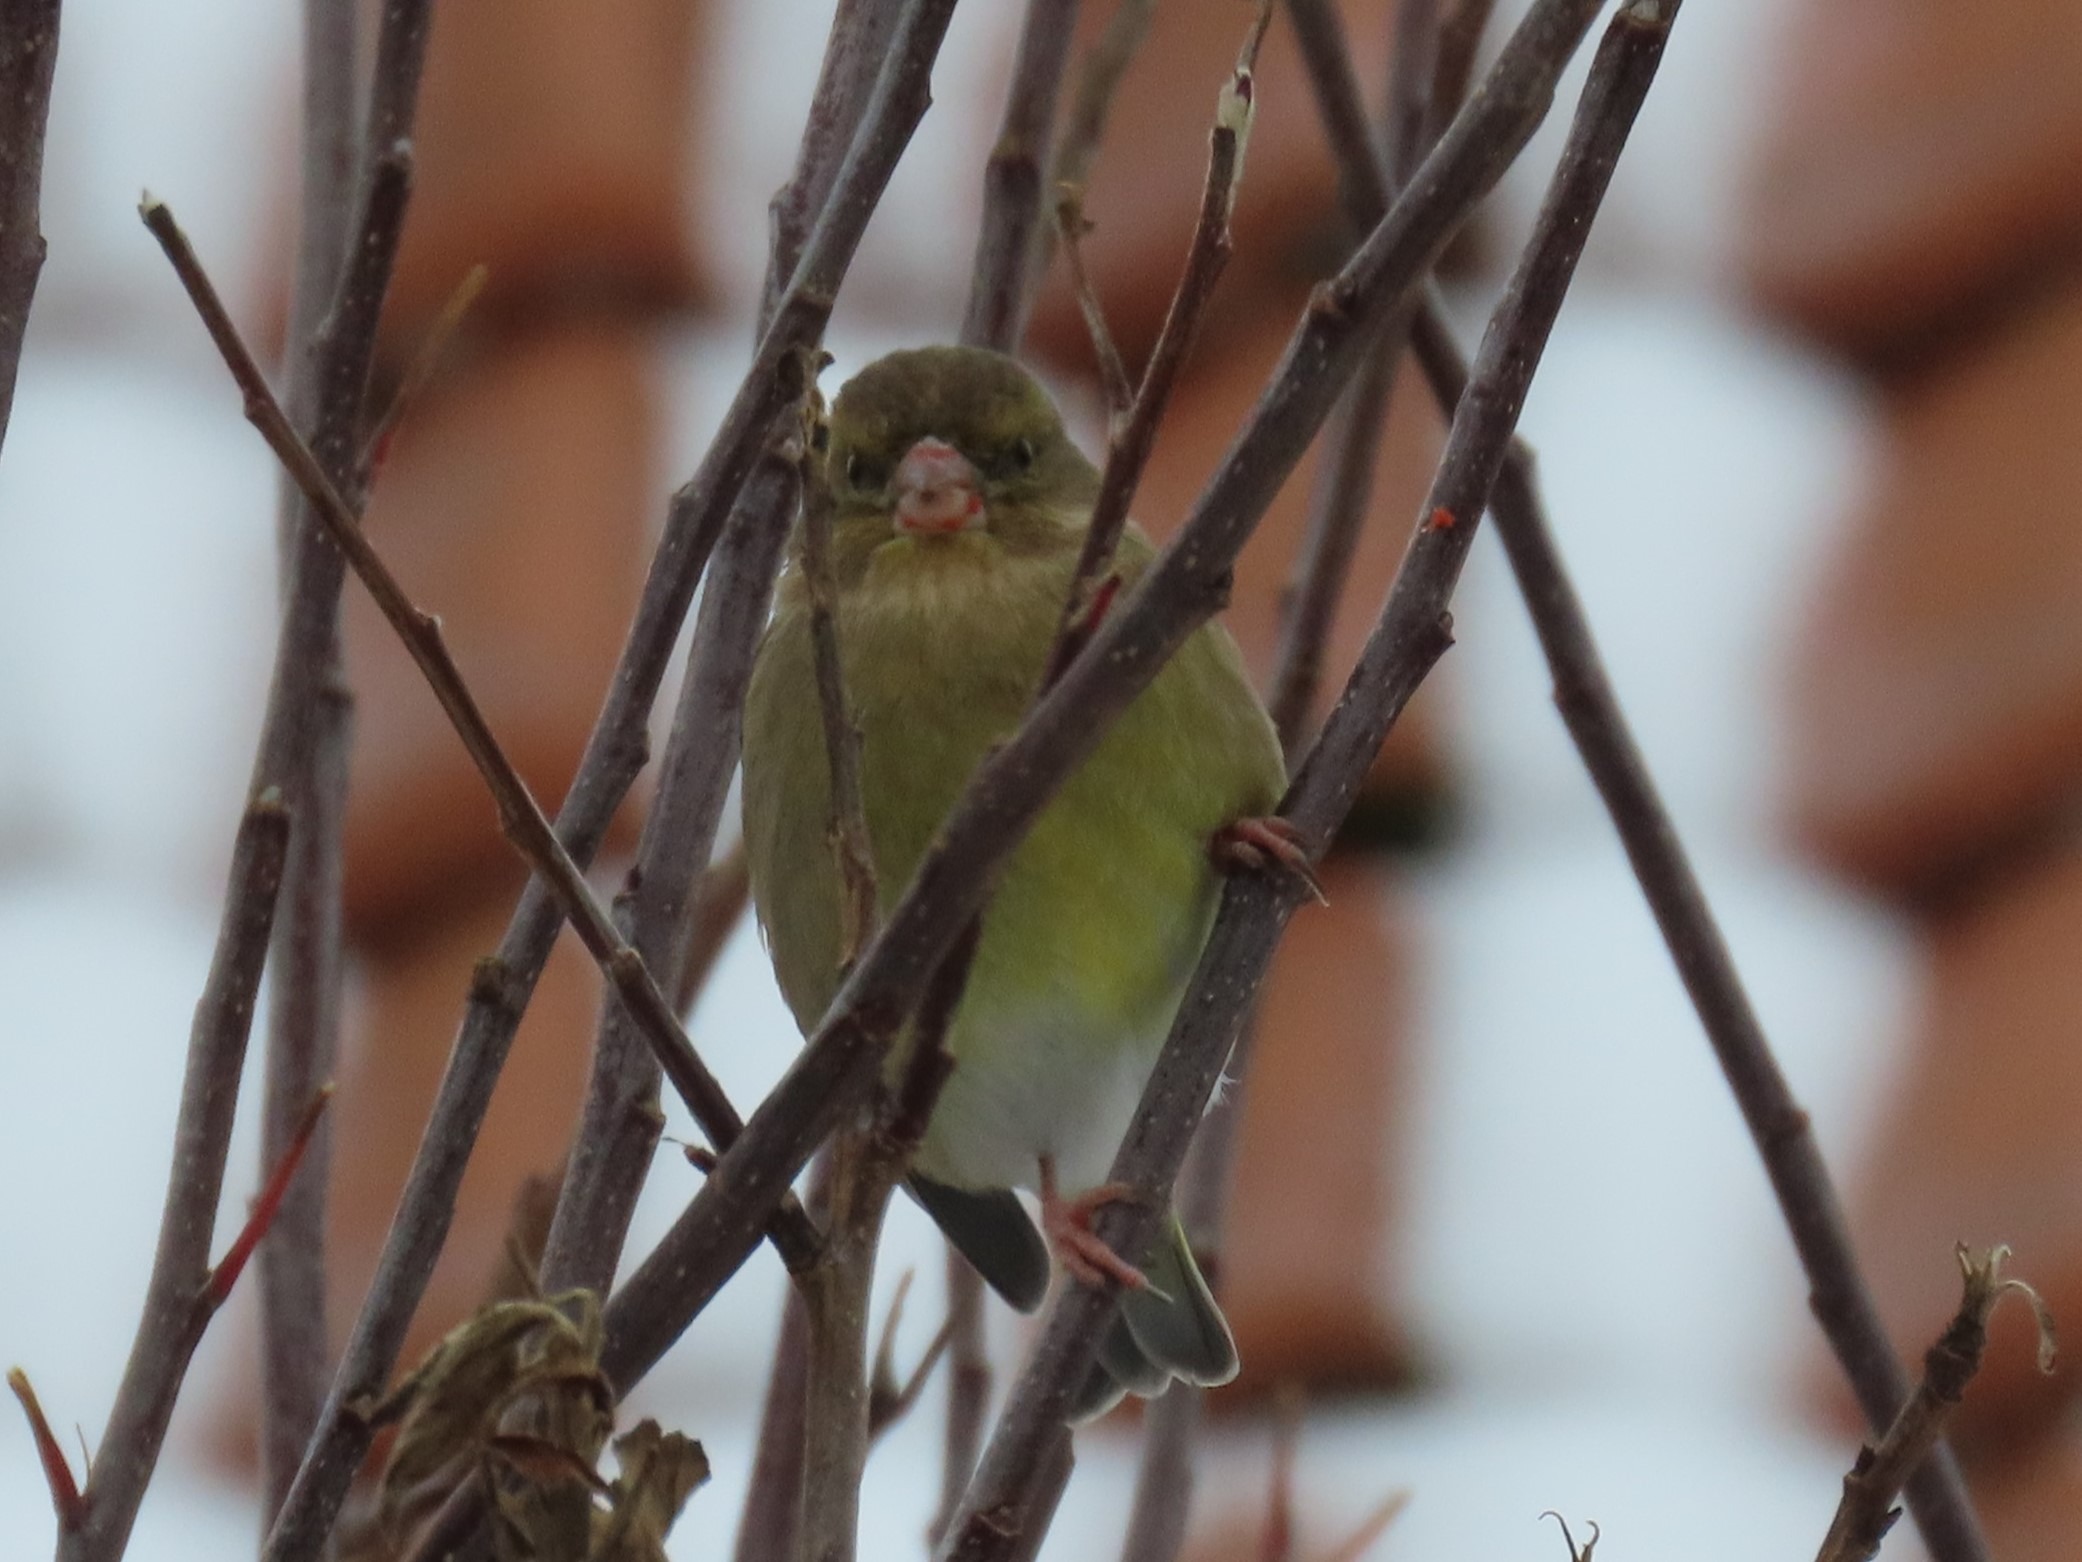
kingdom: Plantae
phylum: Tracheophyta
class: Liliopsida
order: Poales
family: Poaceae
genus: Chloris
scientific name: Chloris chloris
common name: Grønirisk
